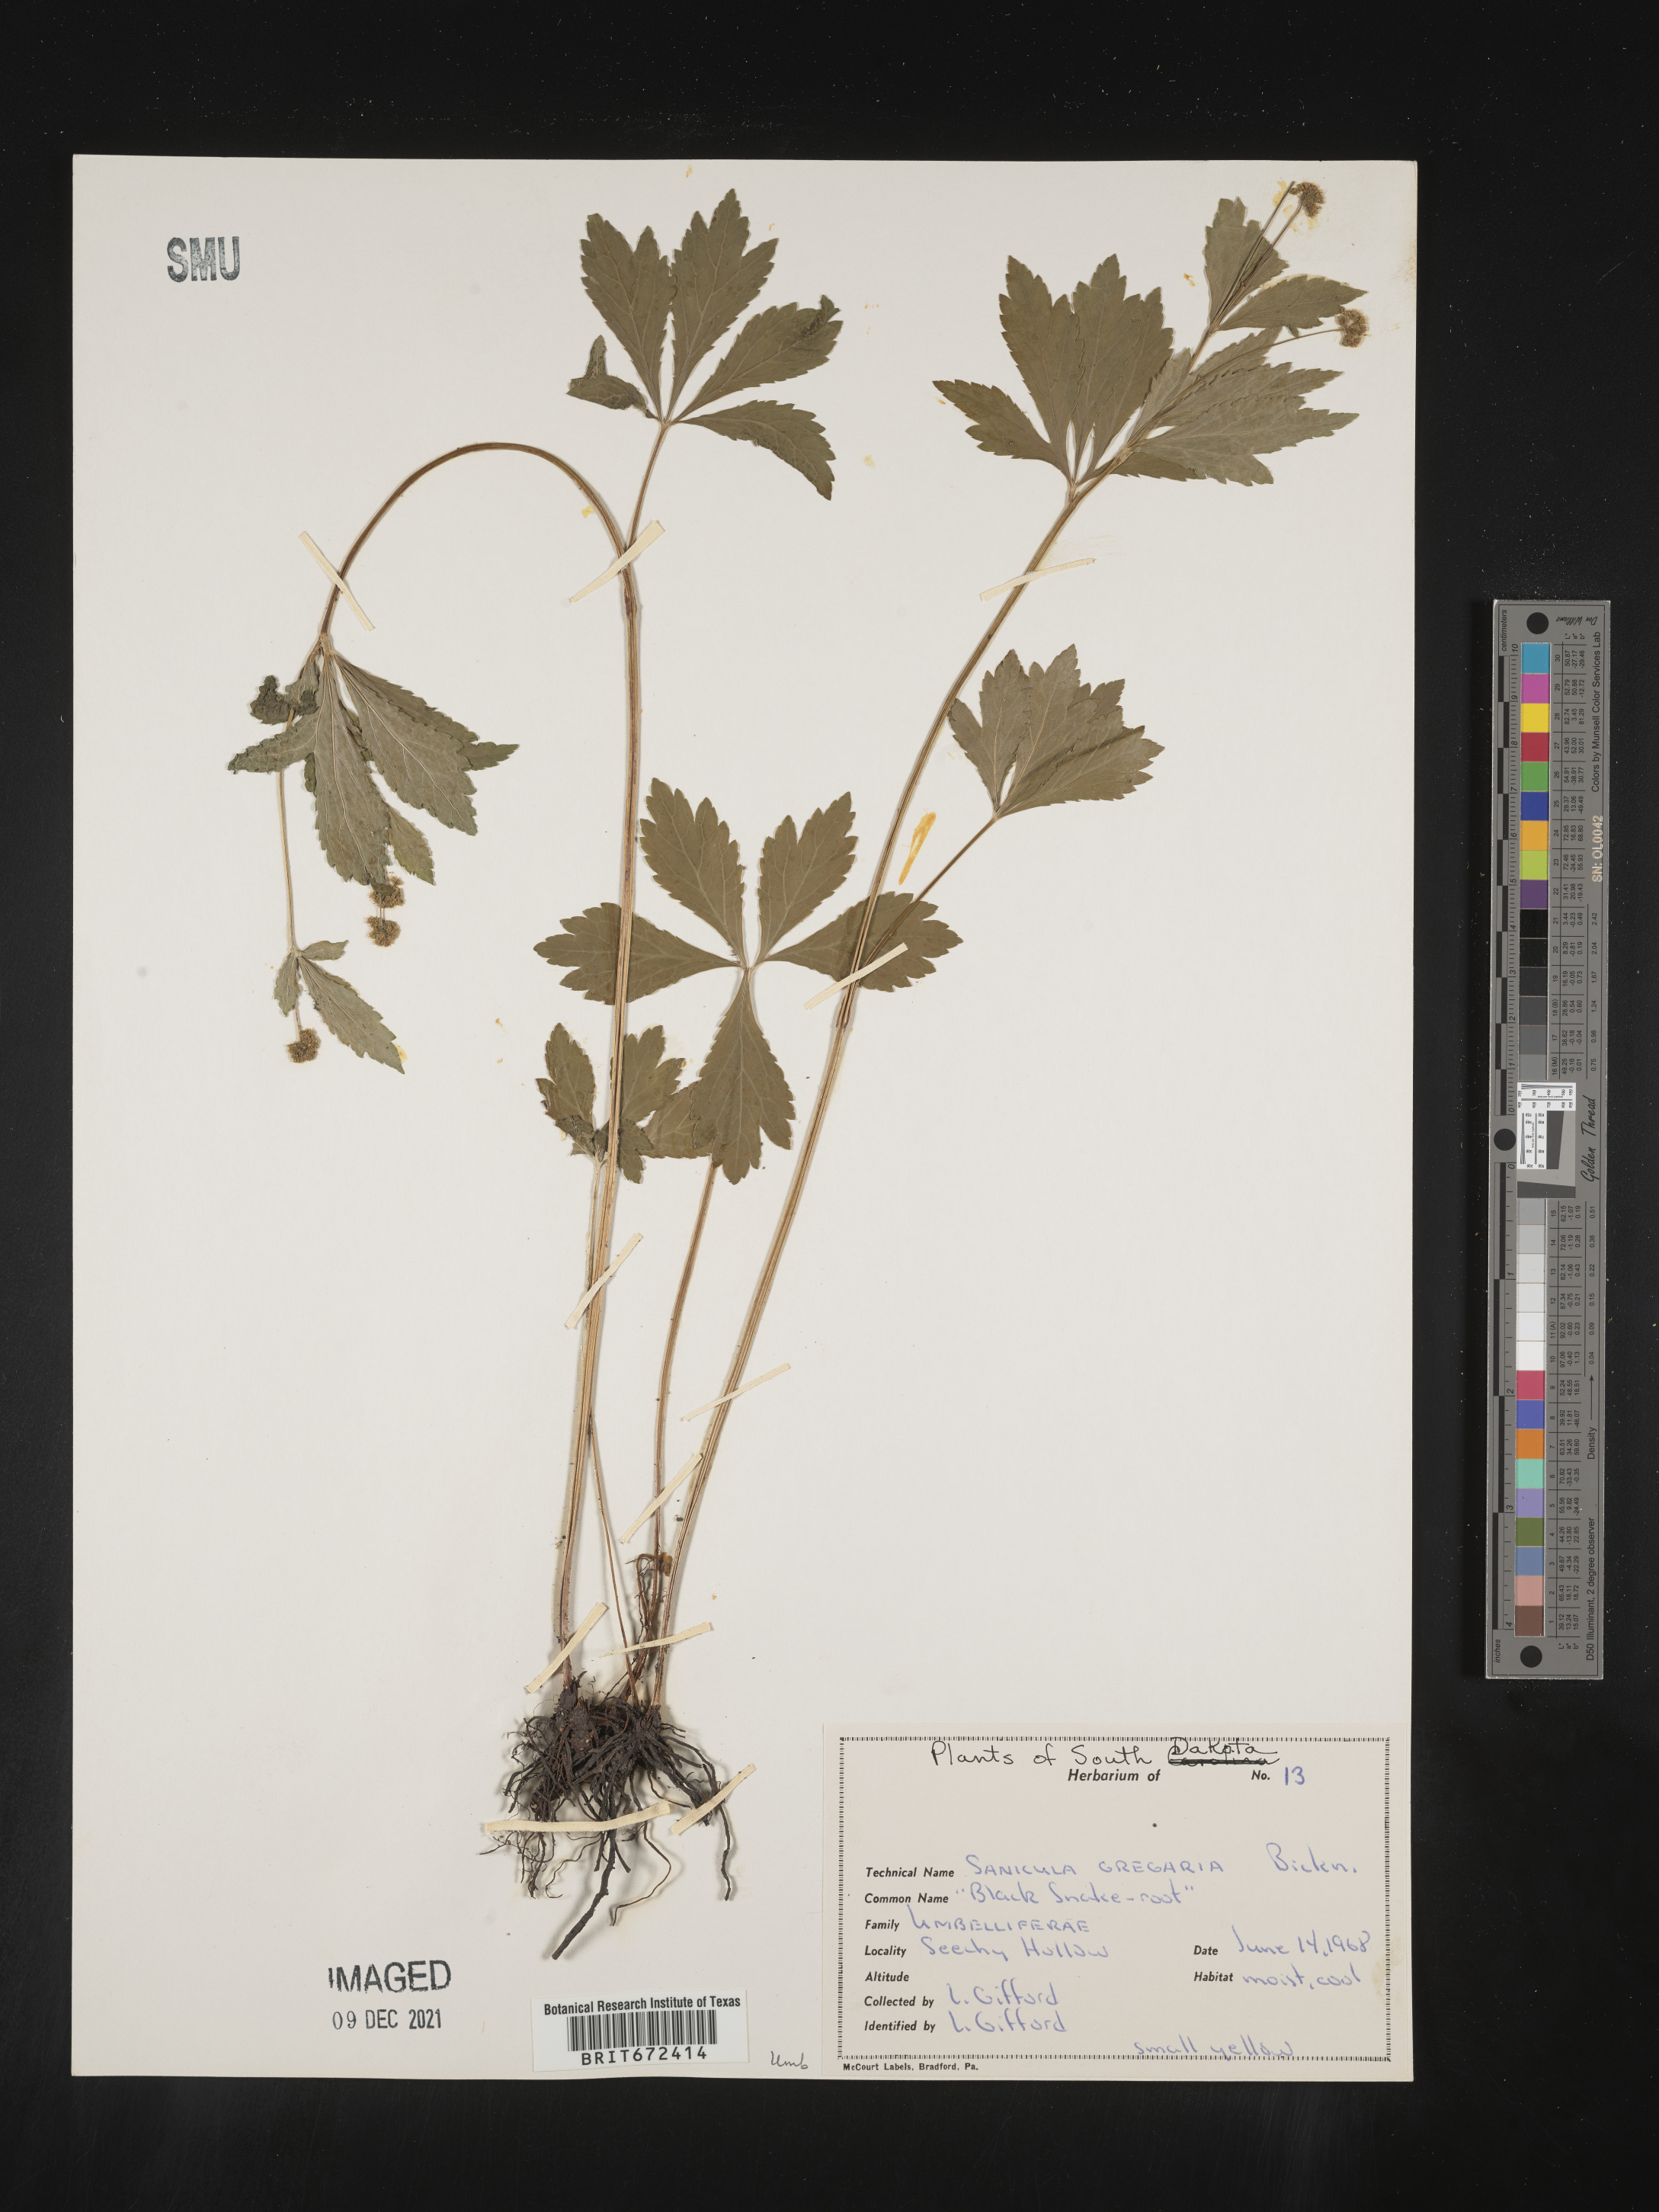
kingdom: Plantae
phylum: Tracheophyta
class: Magnoliopsida
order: Apiales
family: Apiaceae
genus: Sanicula
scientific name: Sanicula odorata
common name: Cluster sanicle
